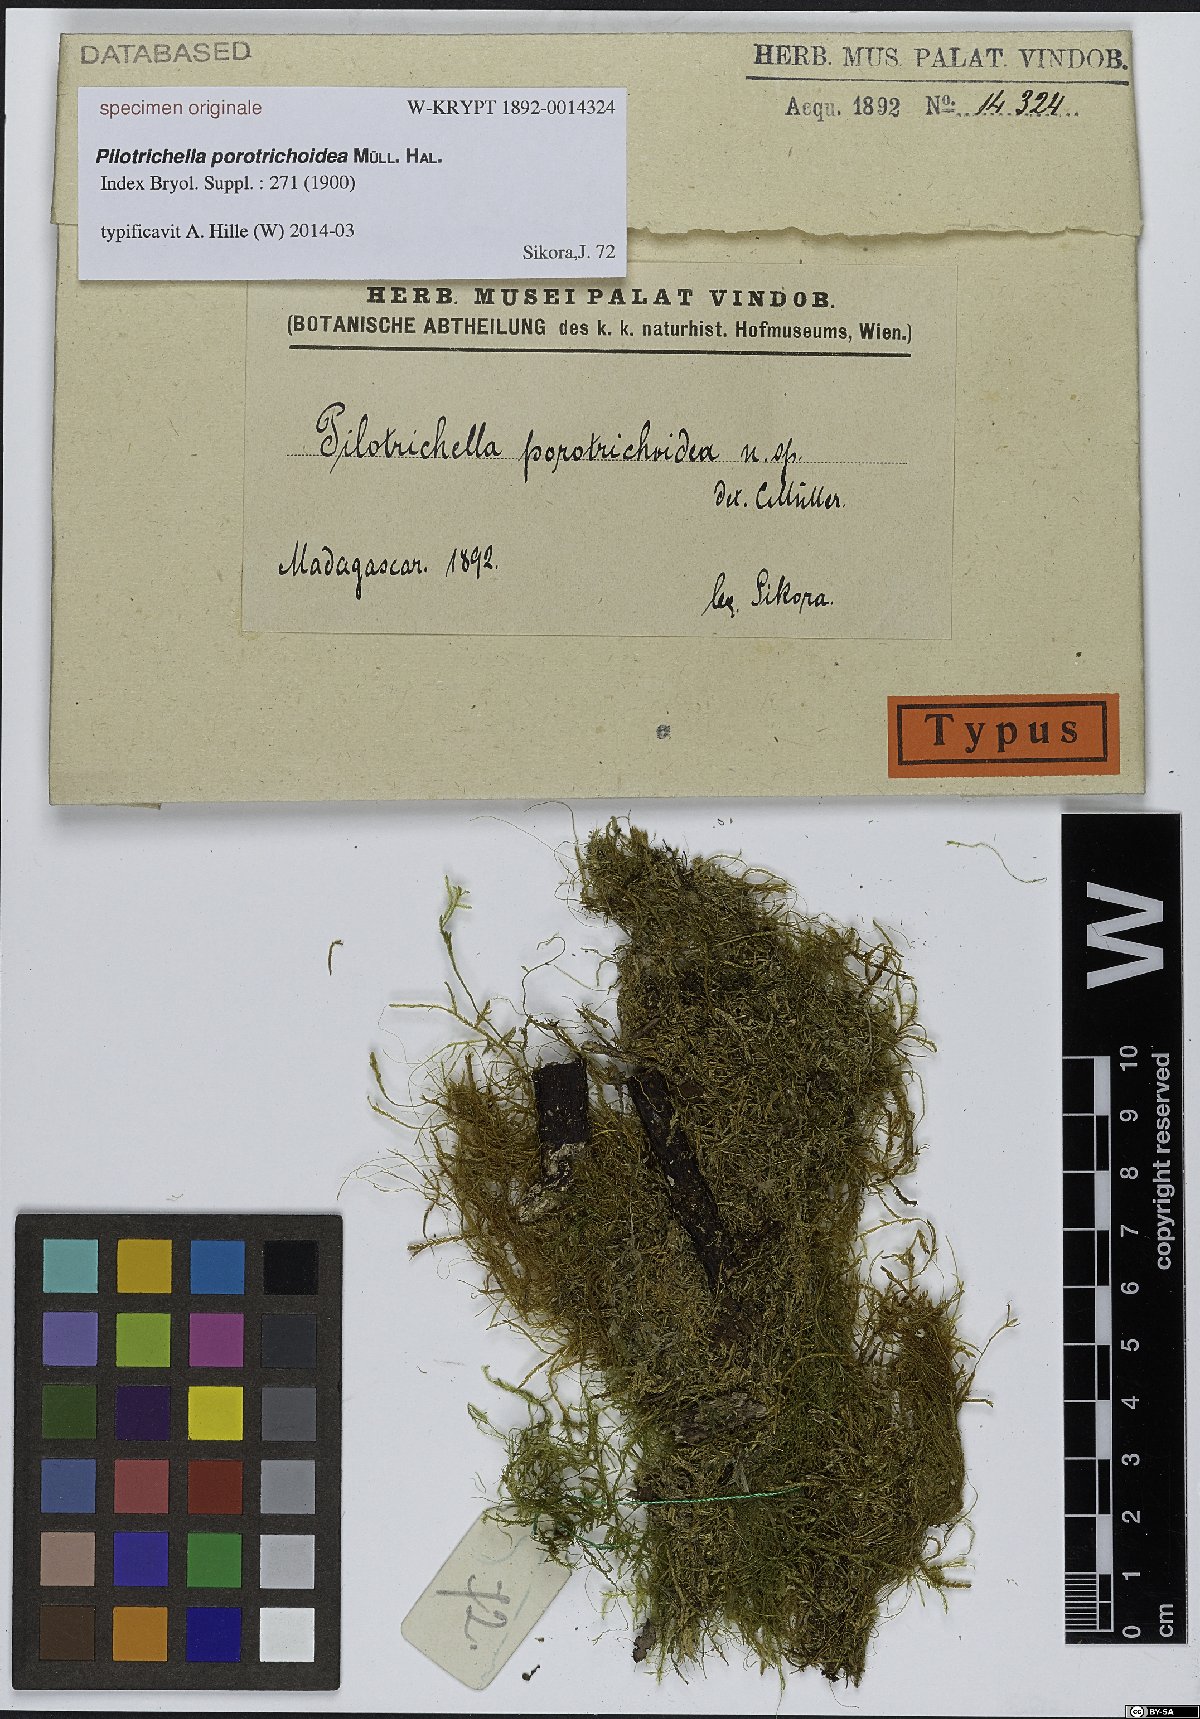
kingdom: Plantae
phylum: Bryophyta
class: Bryopsida
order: Hypnales
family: Lembophyllaceae
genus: Pilotrichella
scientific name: Pilotrichella
